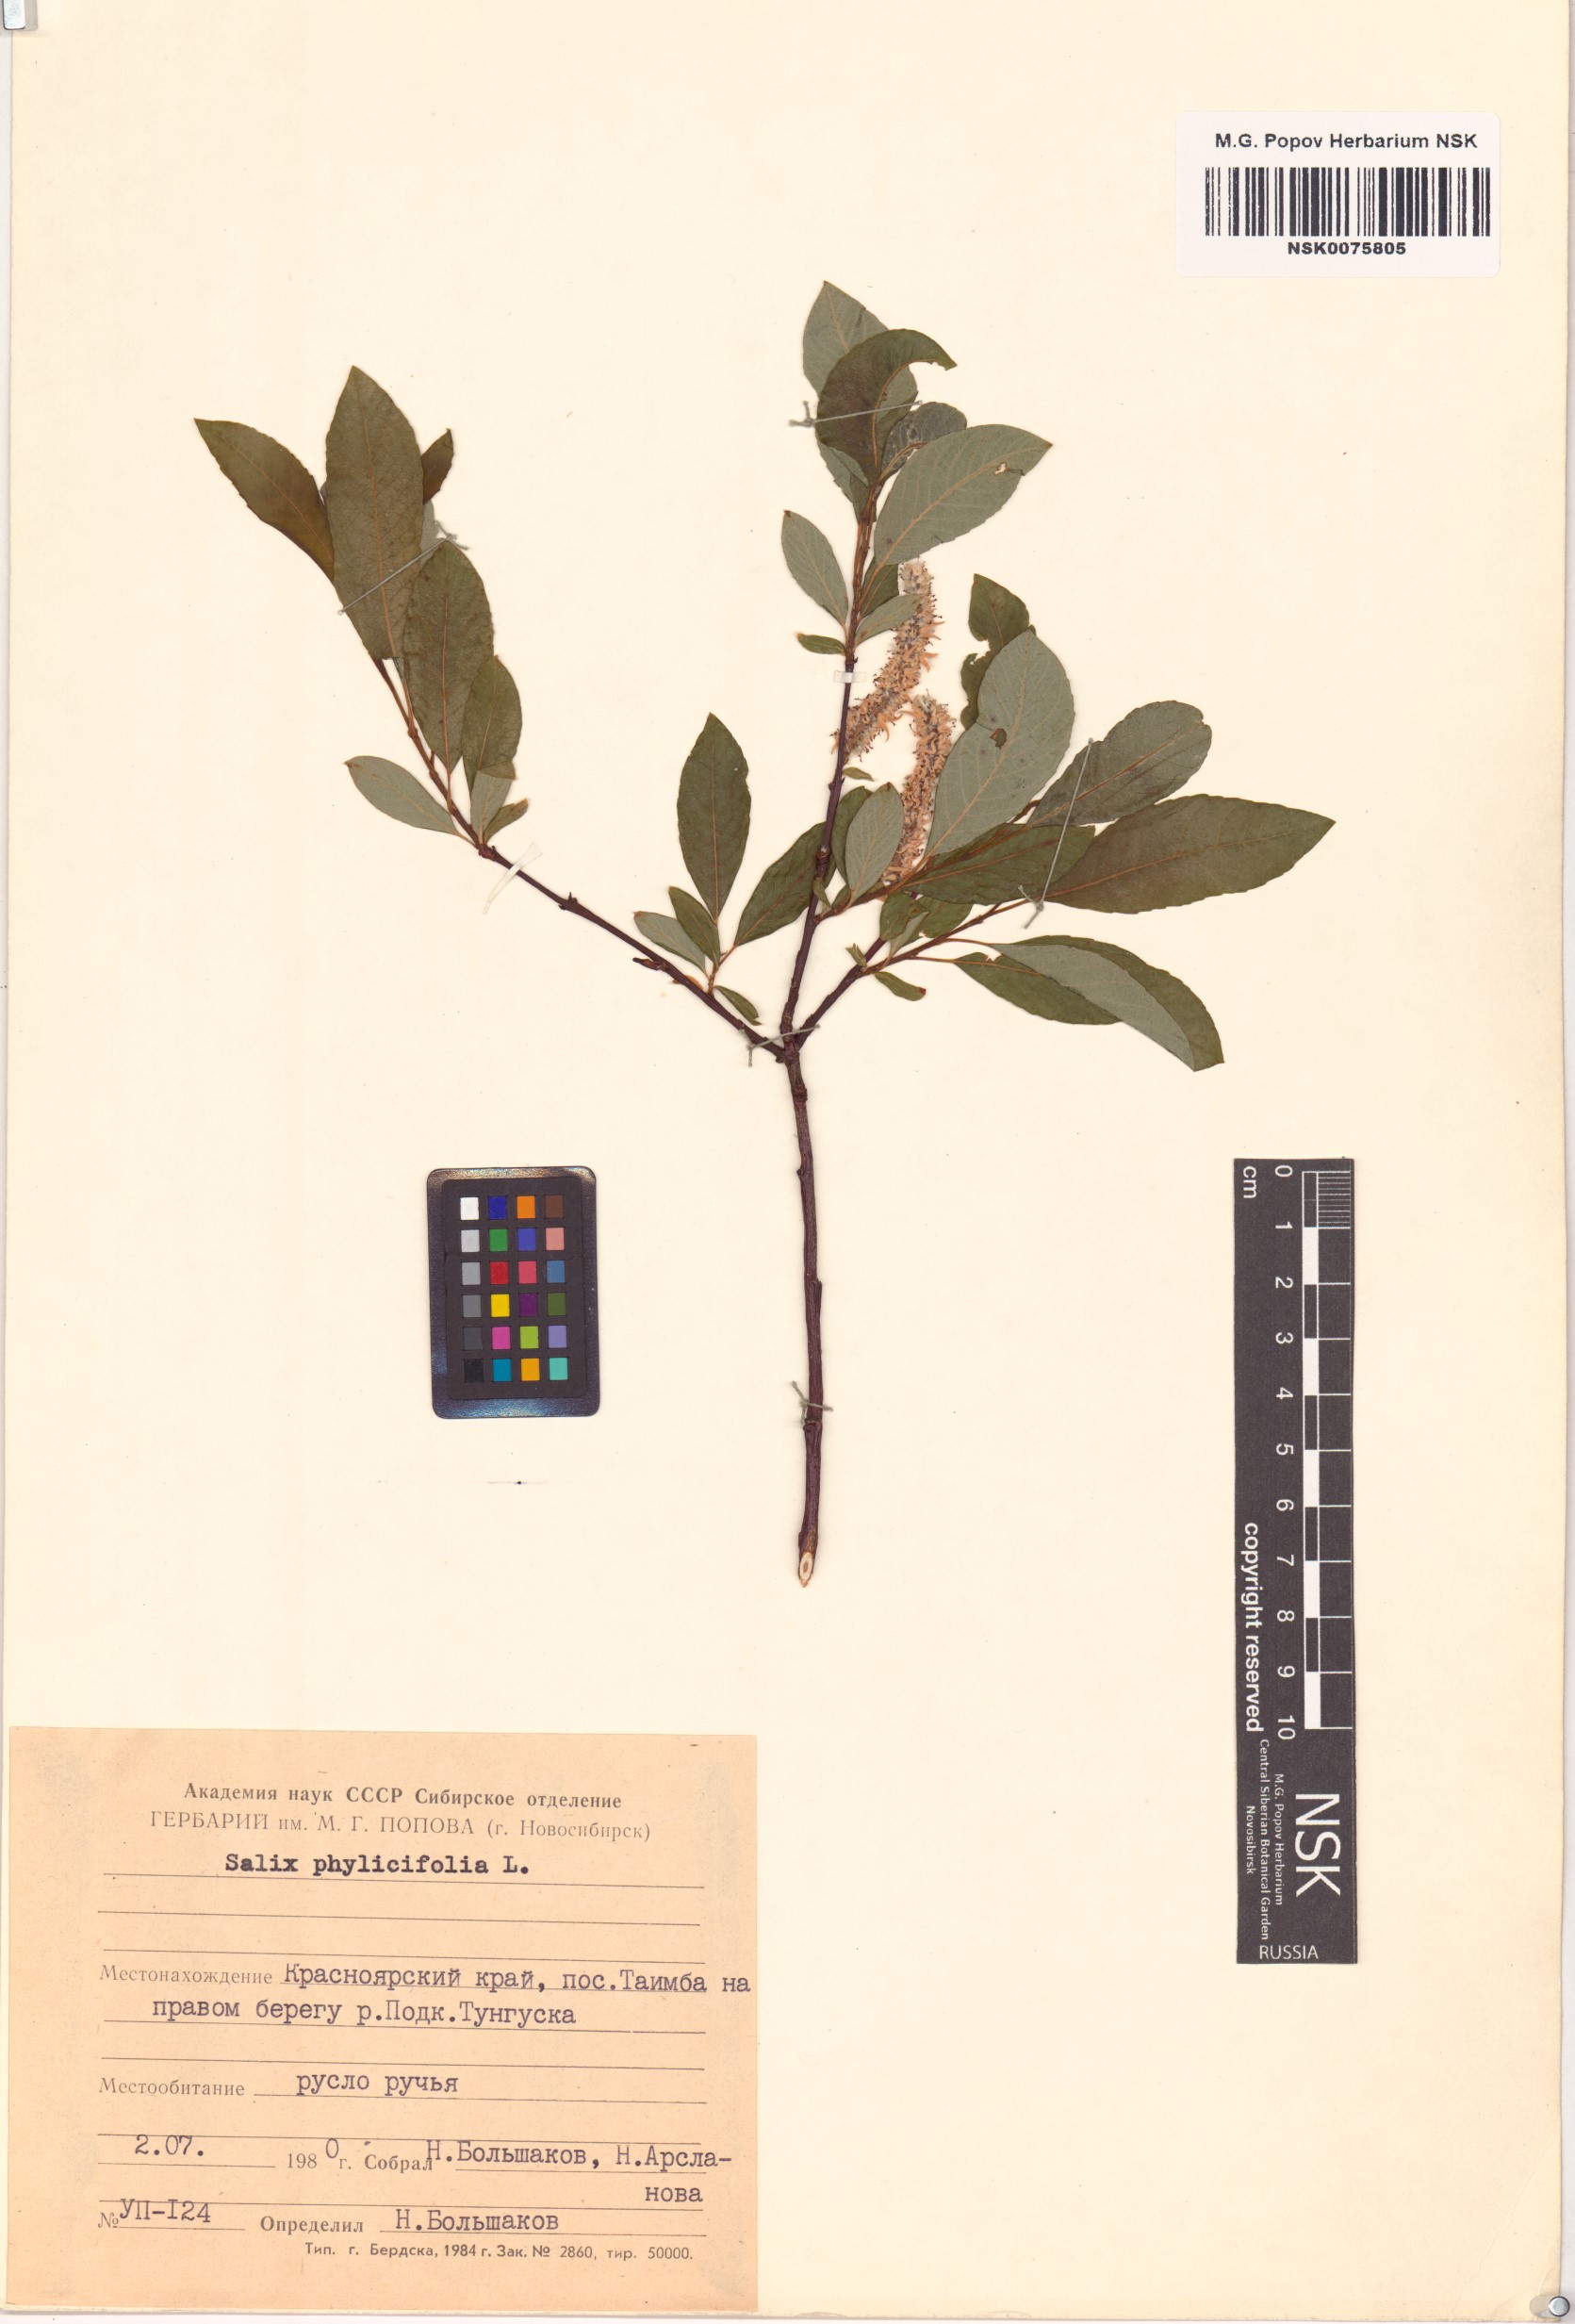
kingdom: Plantae
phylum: Tracheophyta
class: Magnoliopsida
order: Malpighiales
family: Salicaceae
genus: Salix
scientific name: Salix phylicifolia
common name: Tea-leaved willow
